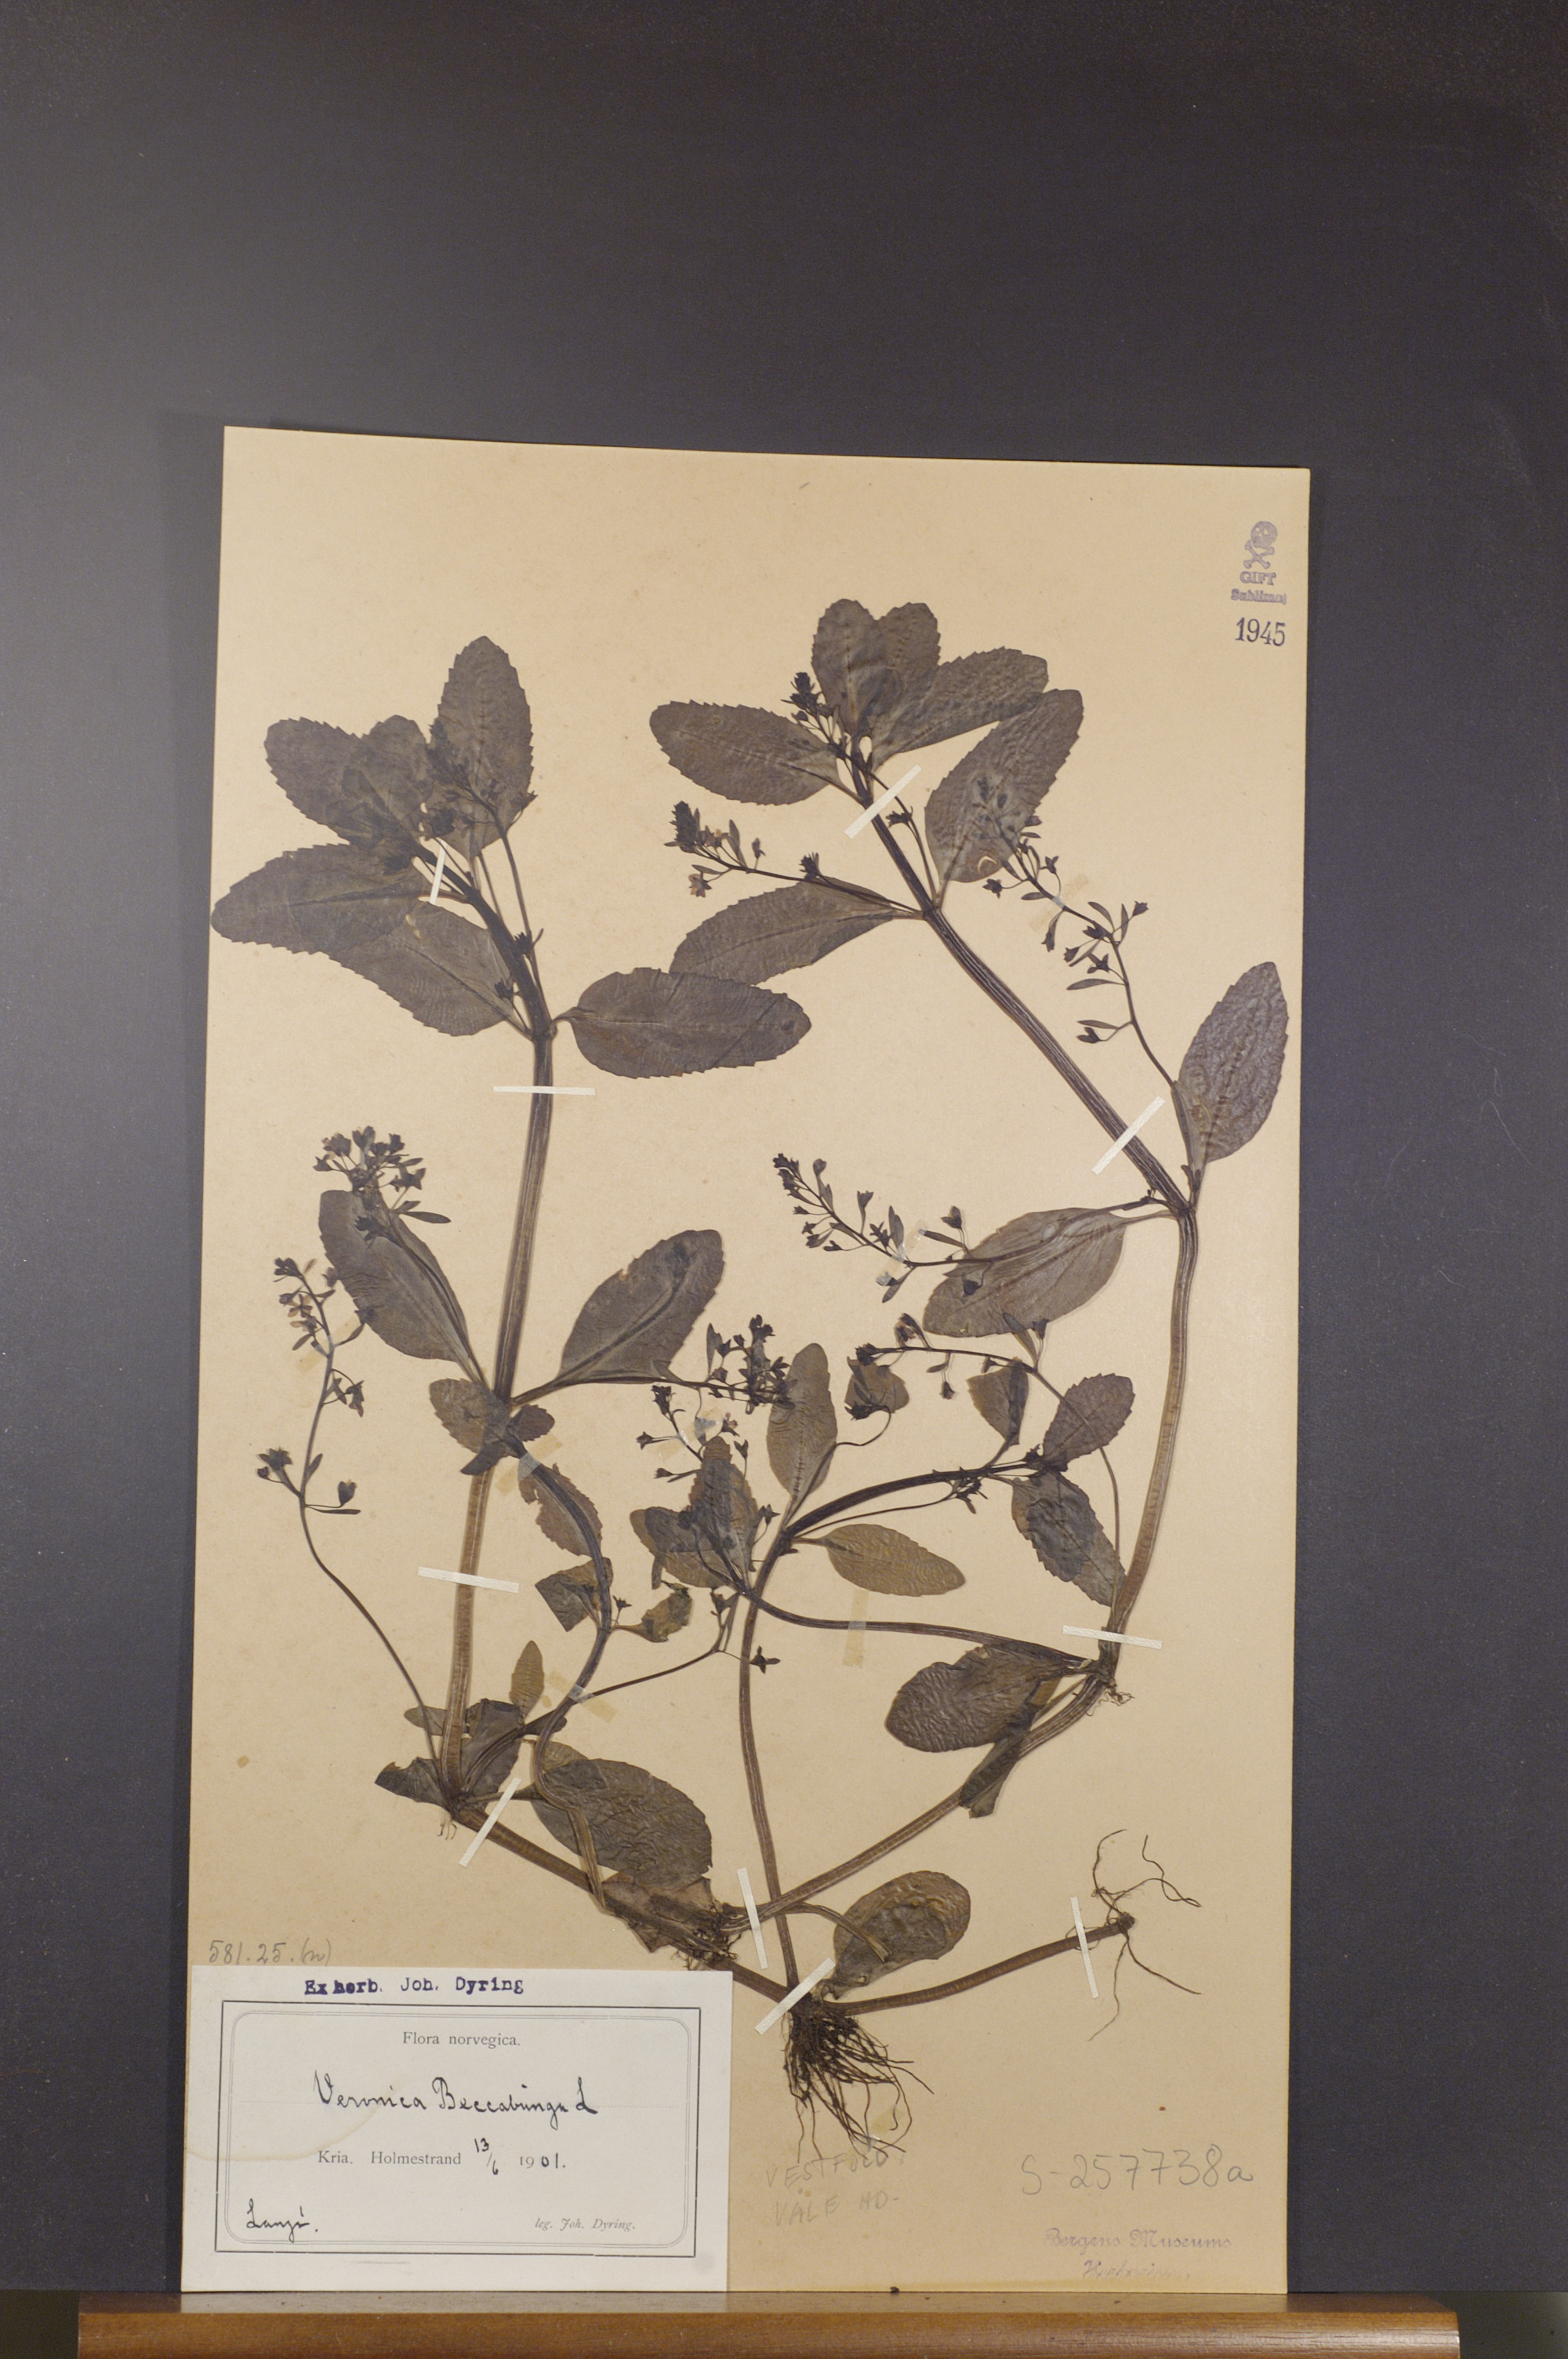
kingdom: Plantae
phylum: Tracheophyta
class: Magnoliopsida
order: Lamiales
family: Plantaginaceae
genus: Veronica
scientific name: Veronica beccabunga
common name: Brooklime
